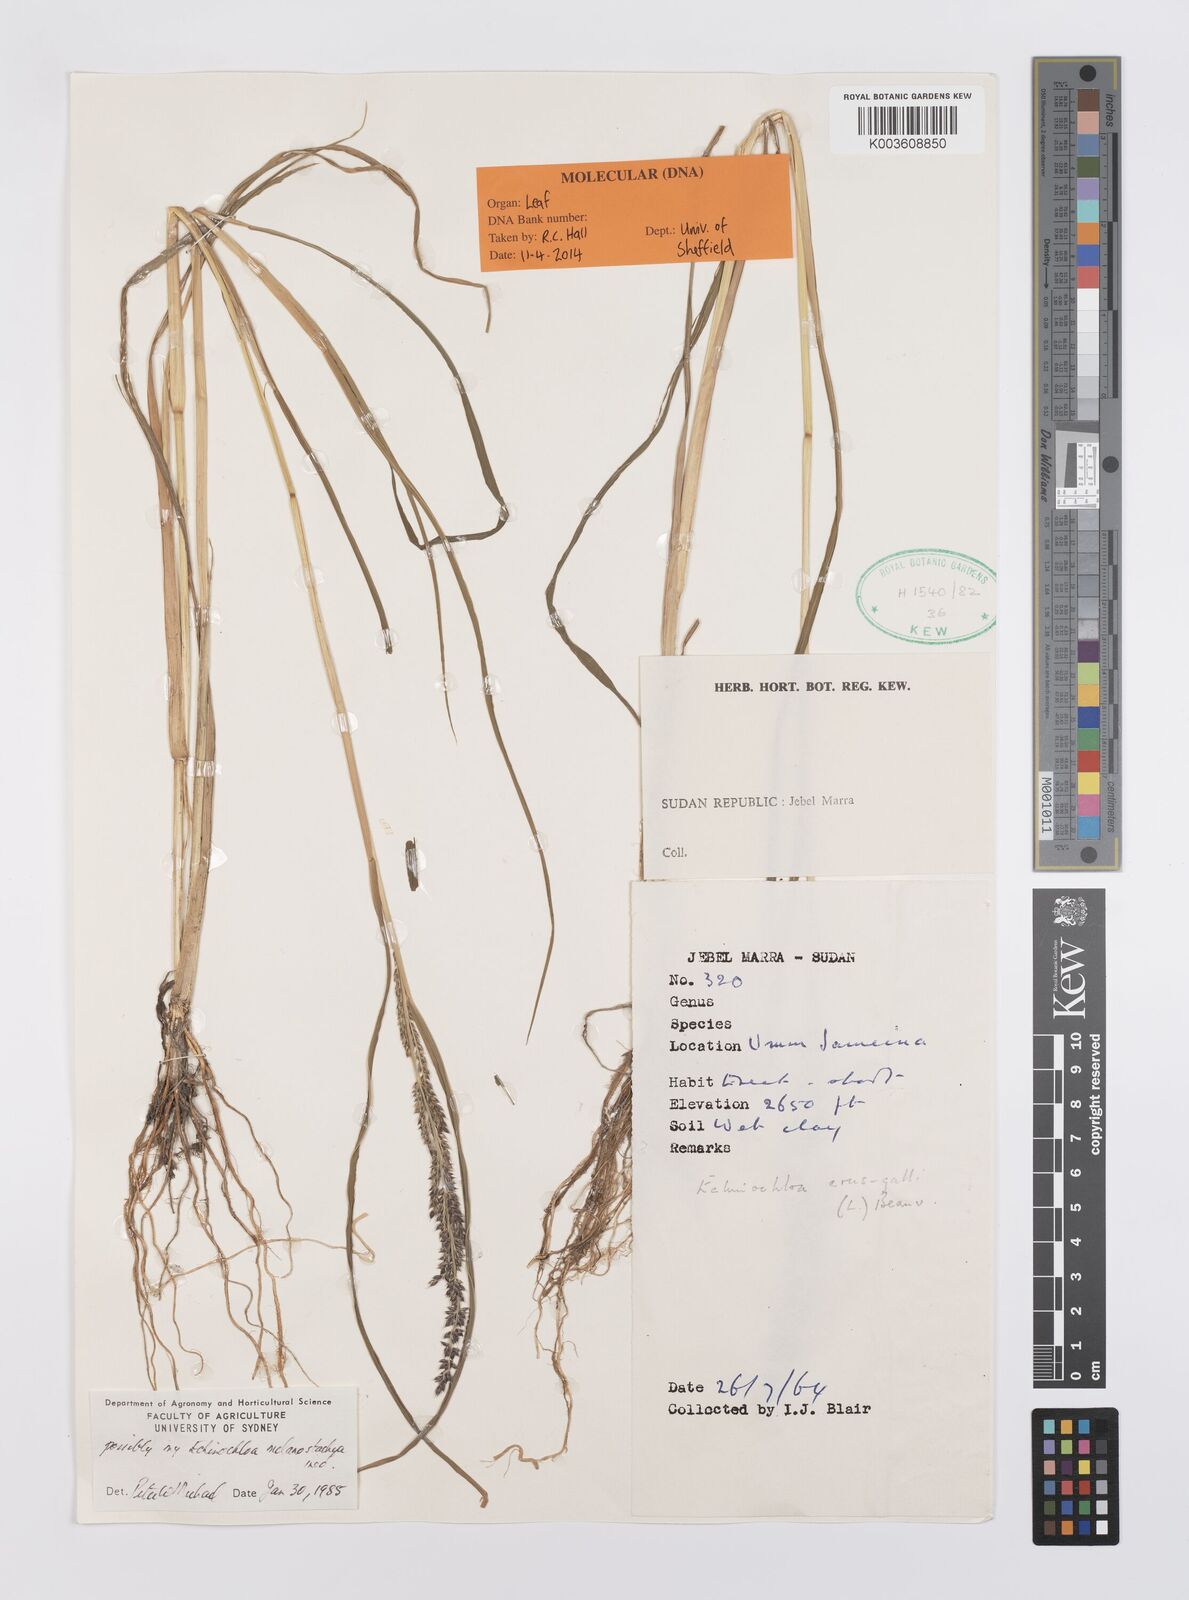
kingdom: Plantae
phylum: Tracheophyta
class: Liliopsida
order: Poales
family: Poaceae
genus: Echinochloa
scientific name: Echinochloa
